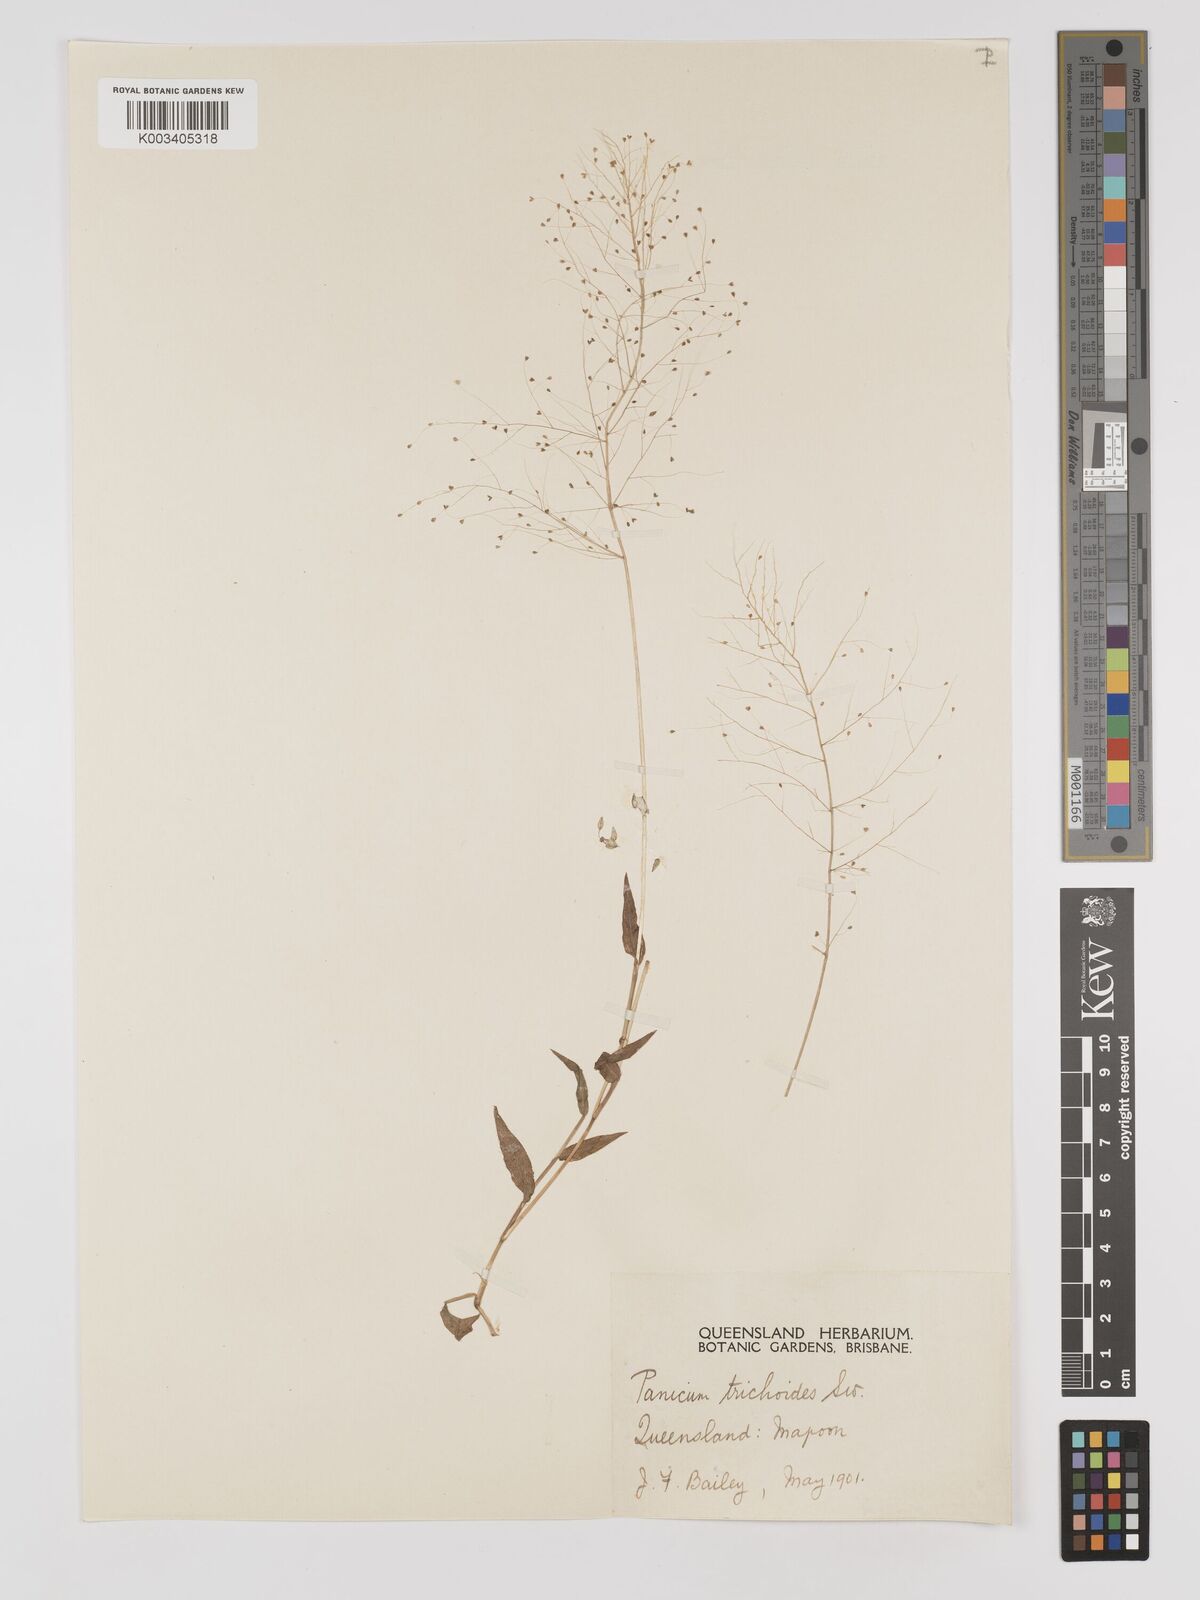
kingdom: Plantae
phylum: Tracheophyta
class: Liliopsida
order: Poales
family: Poaceae
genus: Panicum
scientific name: Panicum trichoides
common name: Tickle grass
